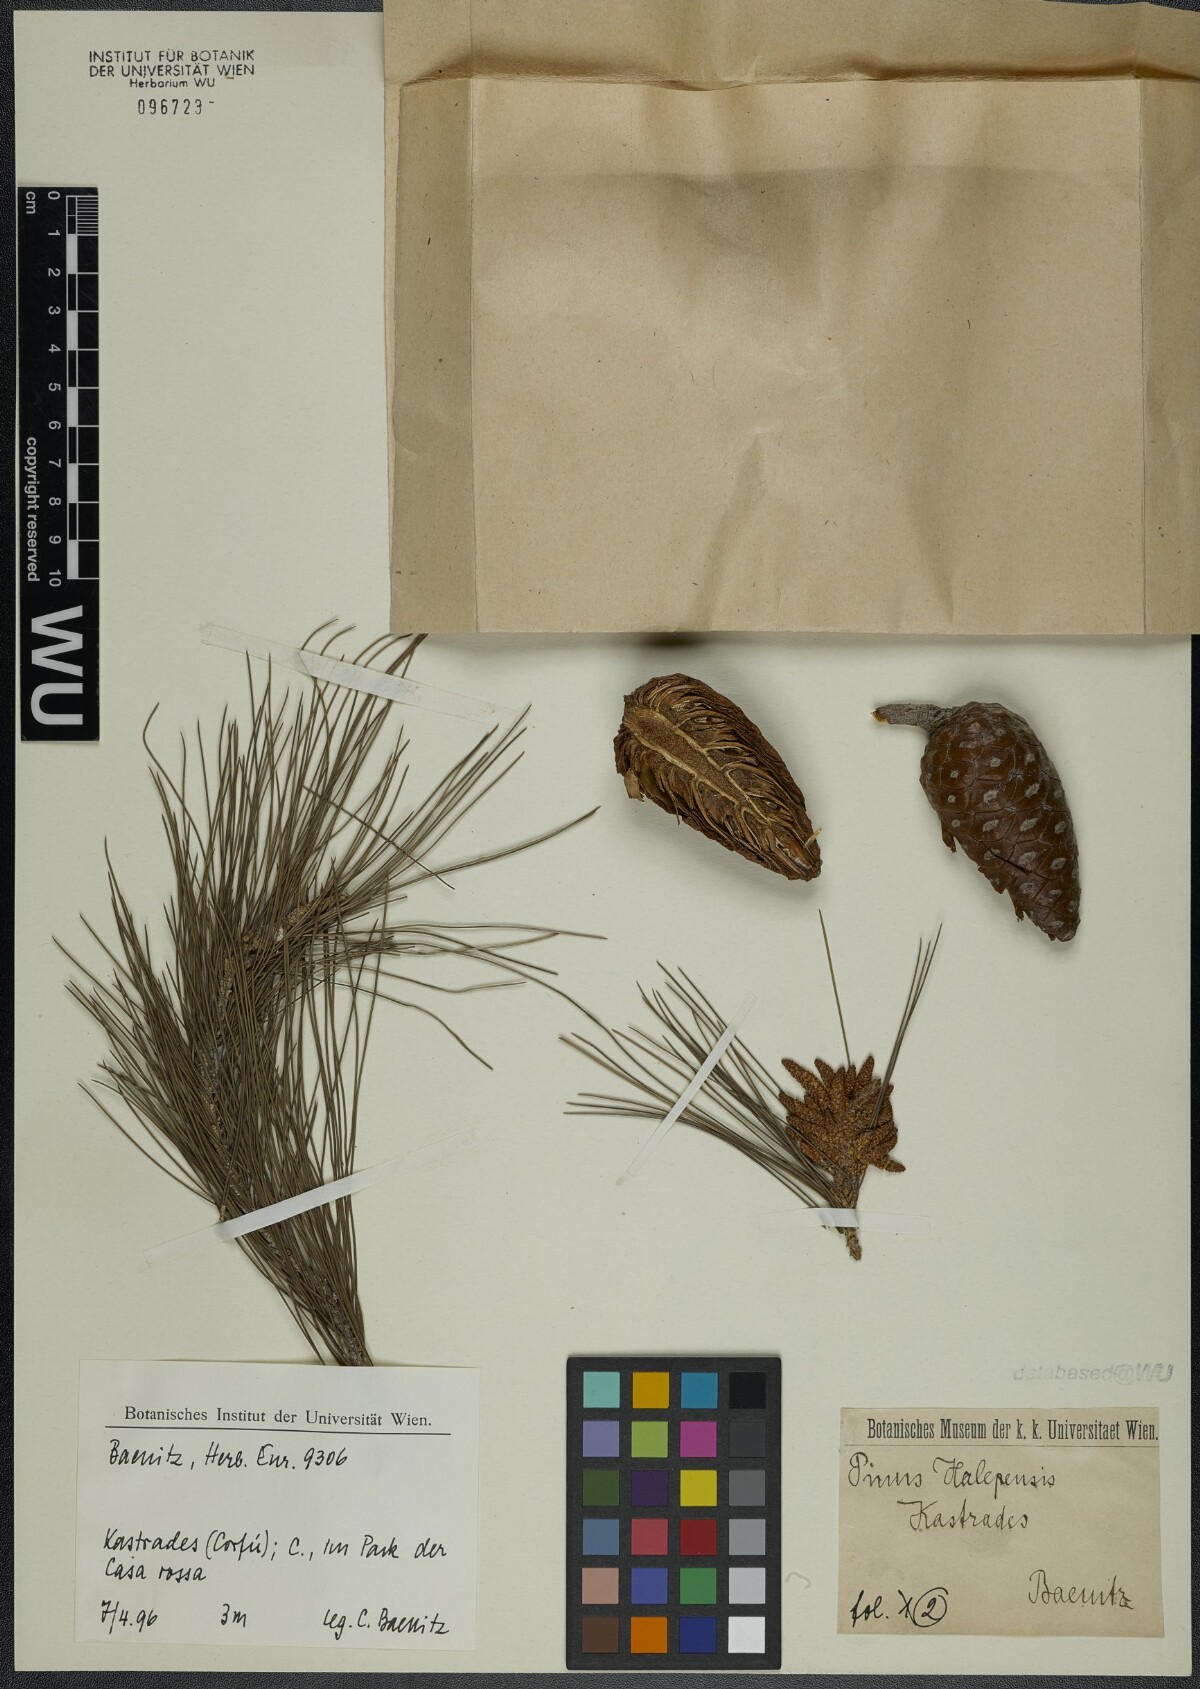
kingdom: Plantae
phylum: Tracheophyta
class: Pinopsida
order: Pinales
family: Pinaceae
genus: Pinus
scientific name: Pinus halepensis
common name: Aleppo pine
